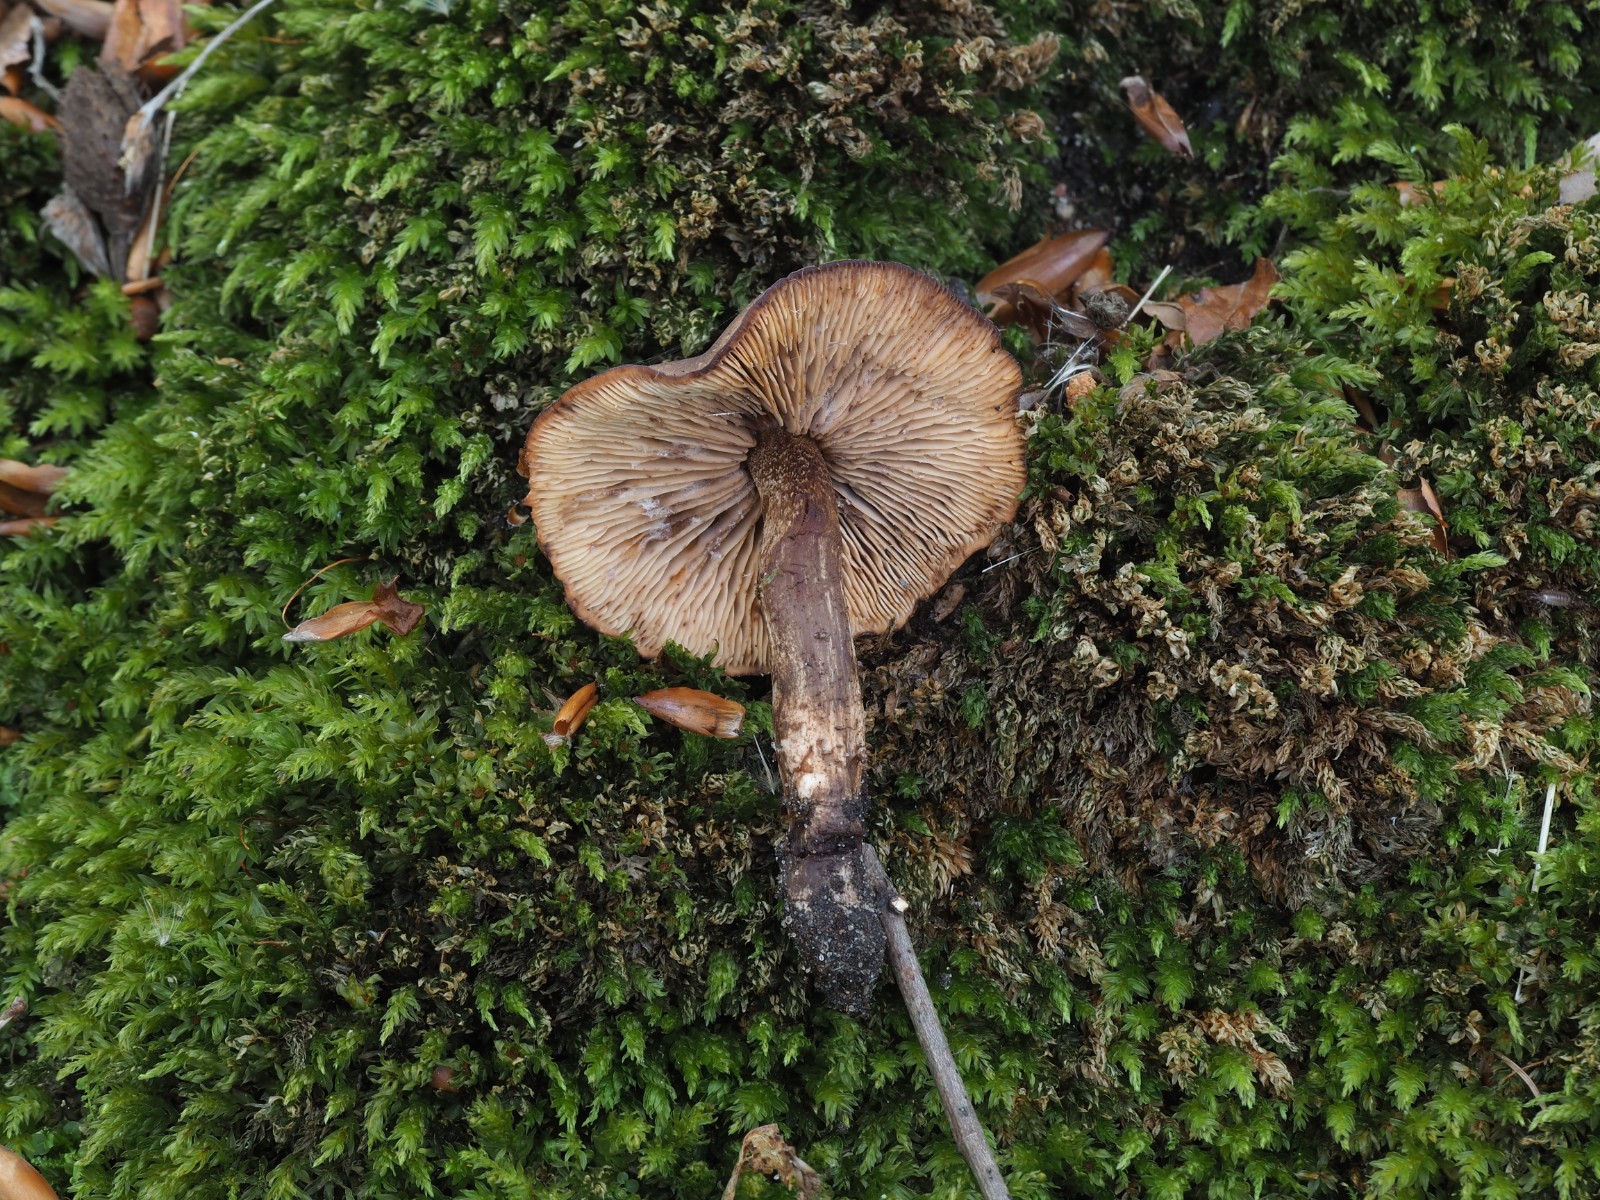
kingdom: Fungi
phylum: Basidiomycota
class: Agaricomycetes
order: Agaricales
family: Lyophyllaceae
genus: Calocybe
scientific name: Calocybe obscurissima
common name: mørk fagerhat
